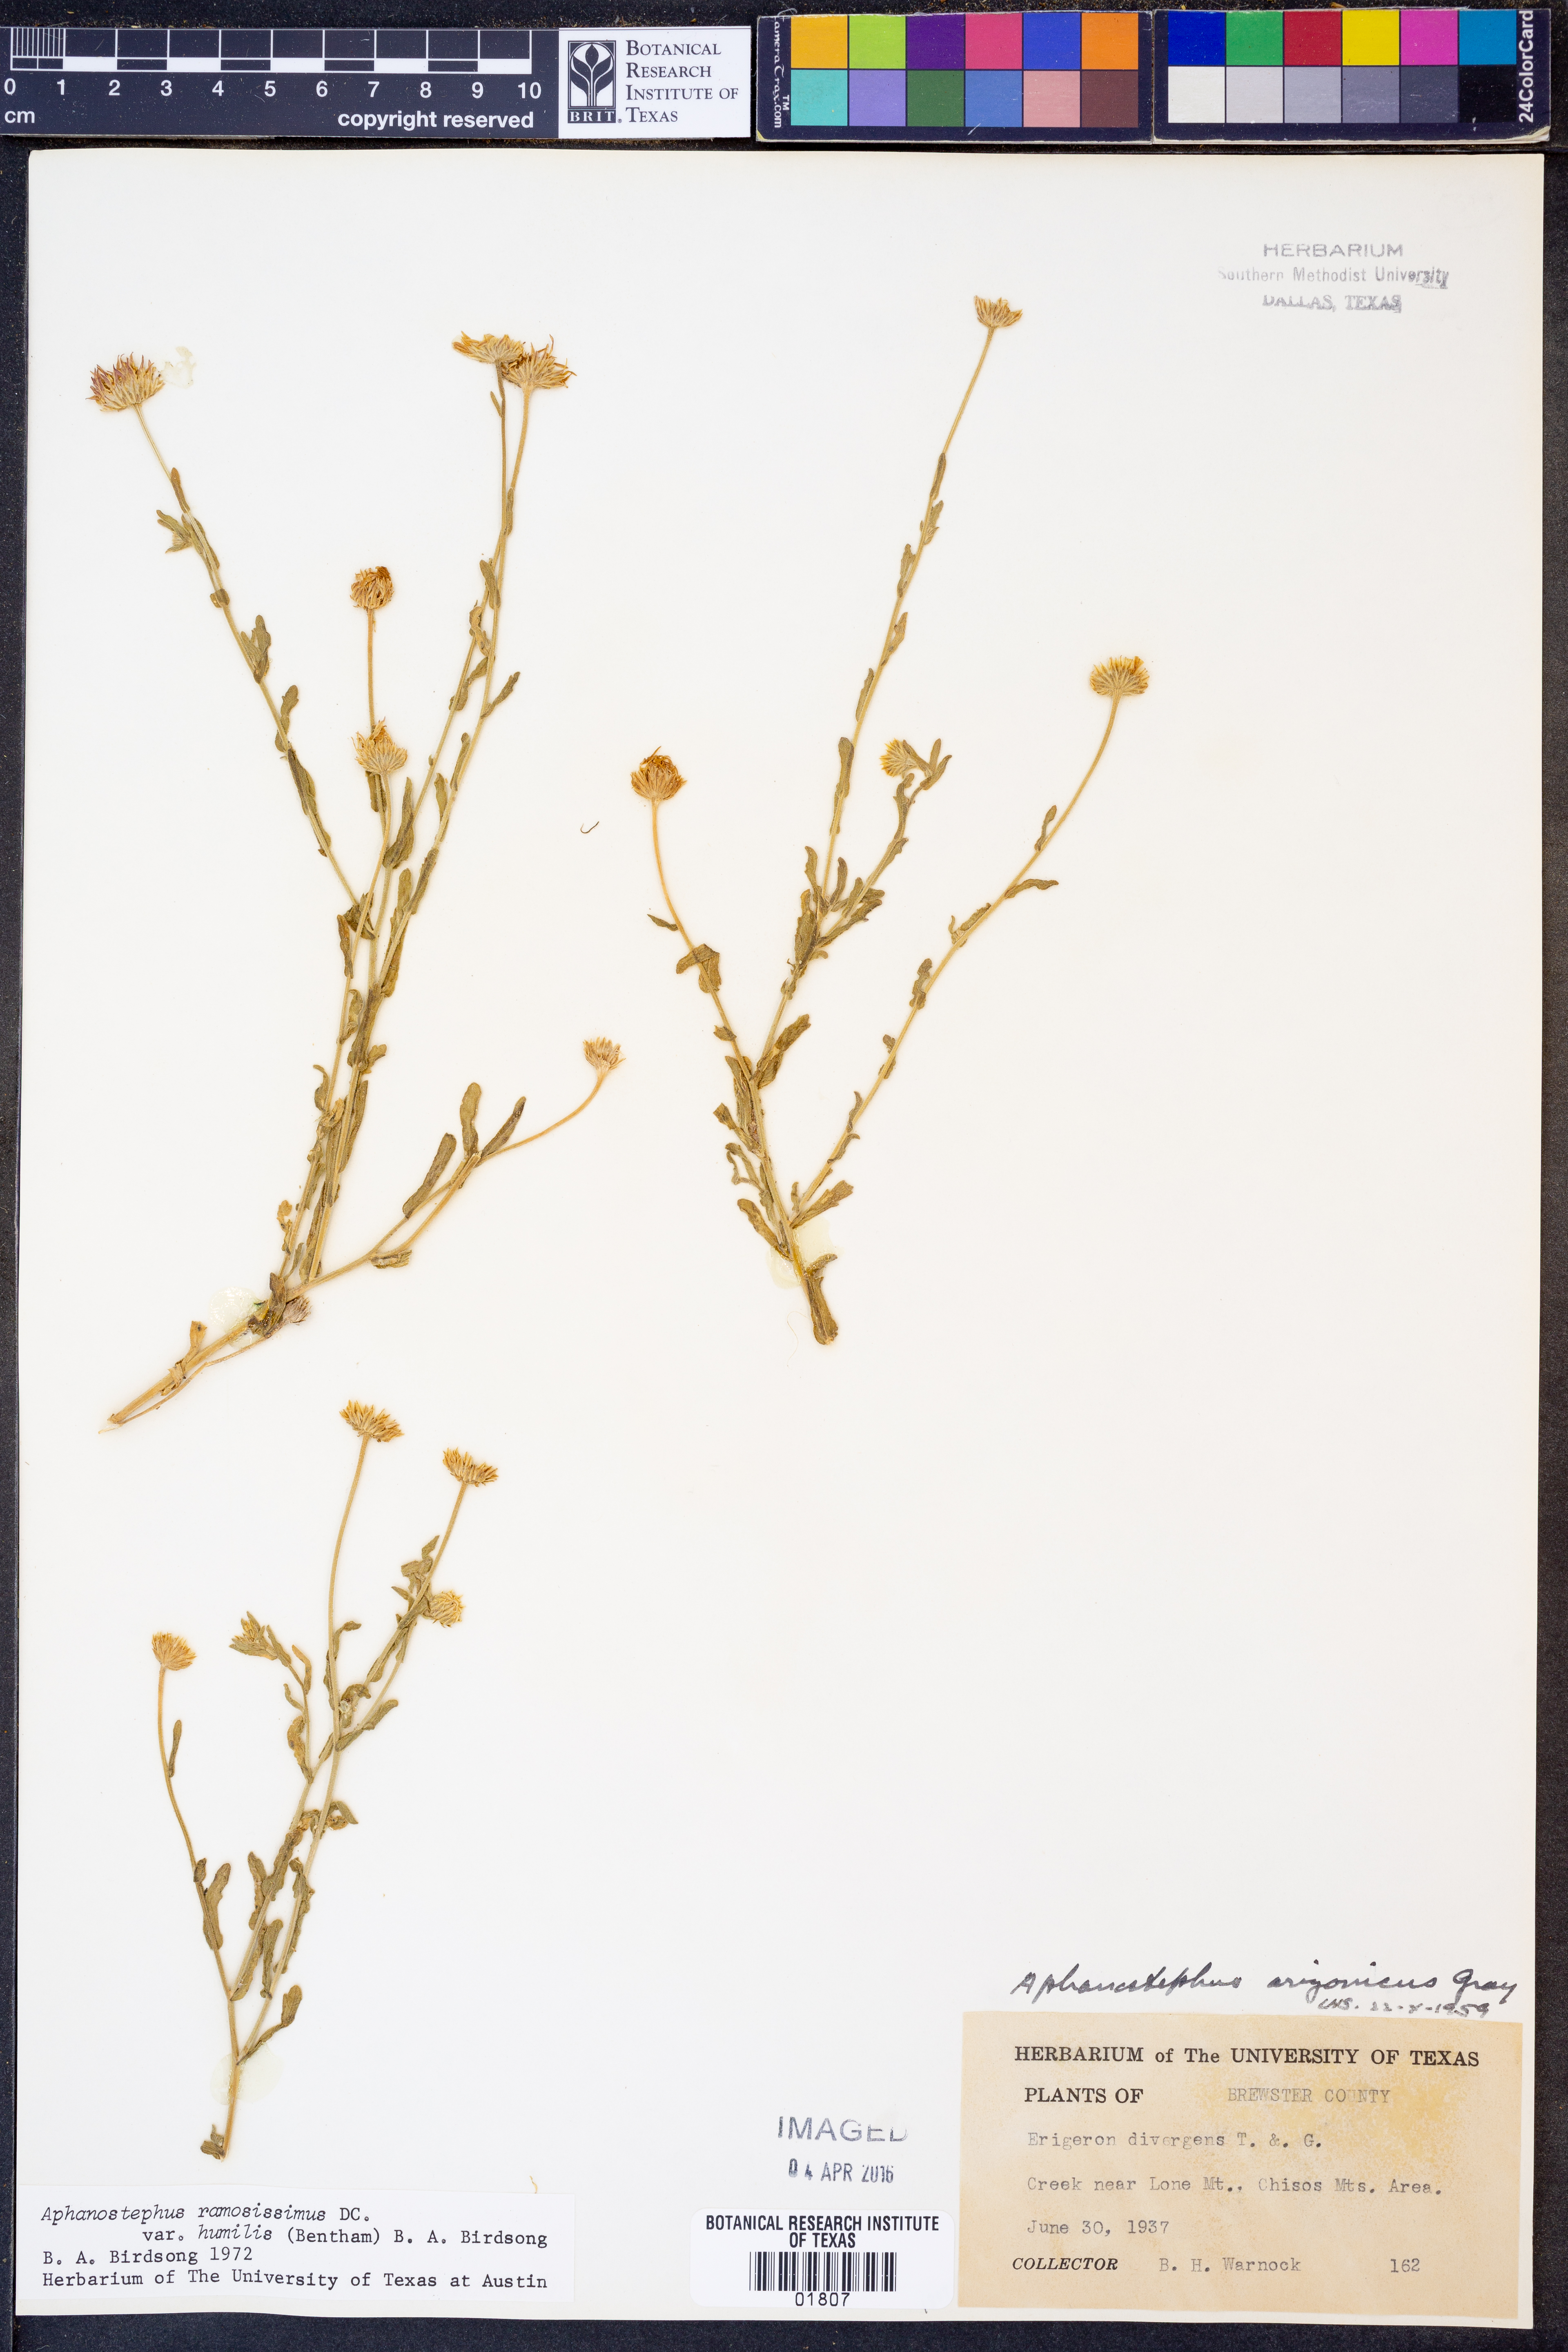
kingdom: Plantae
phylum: Tracheophyta
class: Magnoliopsida
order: Asterales
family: Asteraceae
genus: Aphanostephus
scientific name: Aphanostephus ramosissimus
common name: Plains lazy daisy
